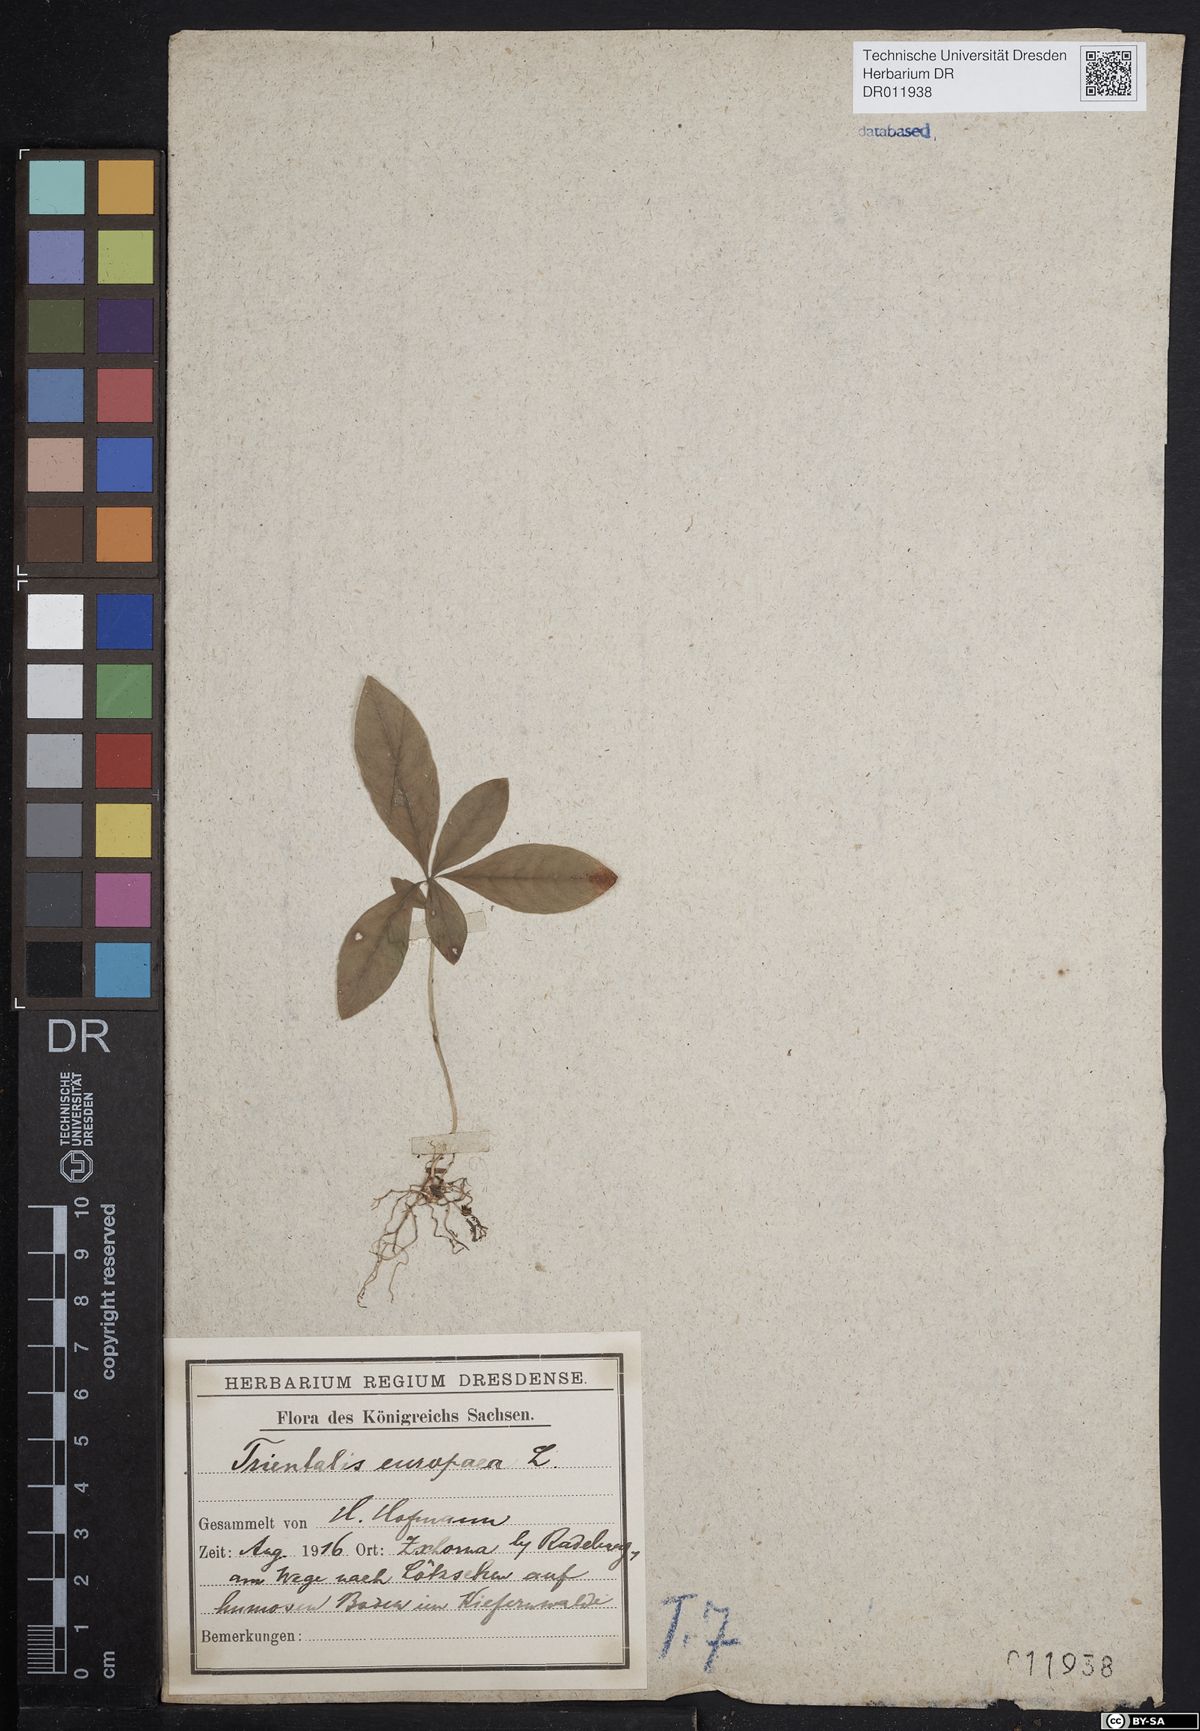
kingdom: Plantae
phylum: Tracheophyta
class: Magnoliopsida
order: Ericales
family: Primulaceae
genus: Lysimachia
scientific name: Lysimachia europaea
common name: Arctic starflower
